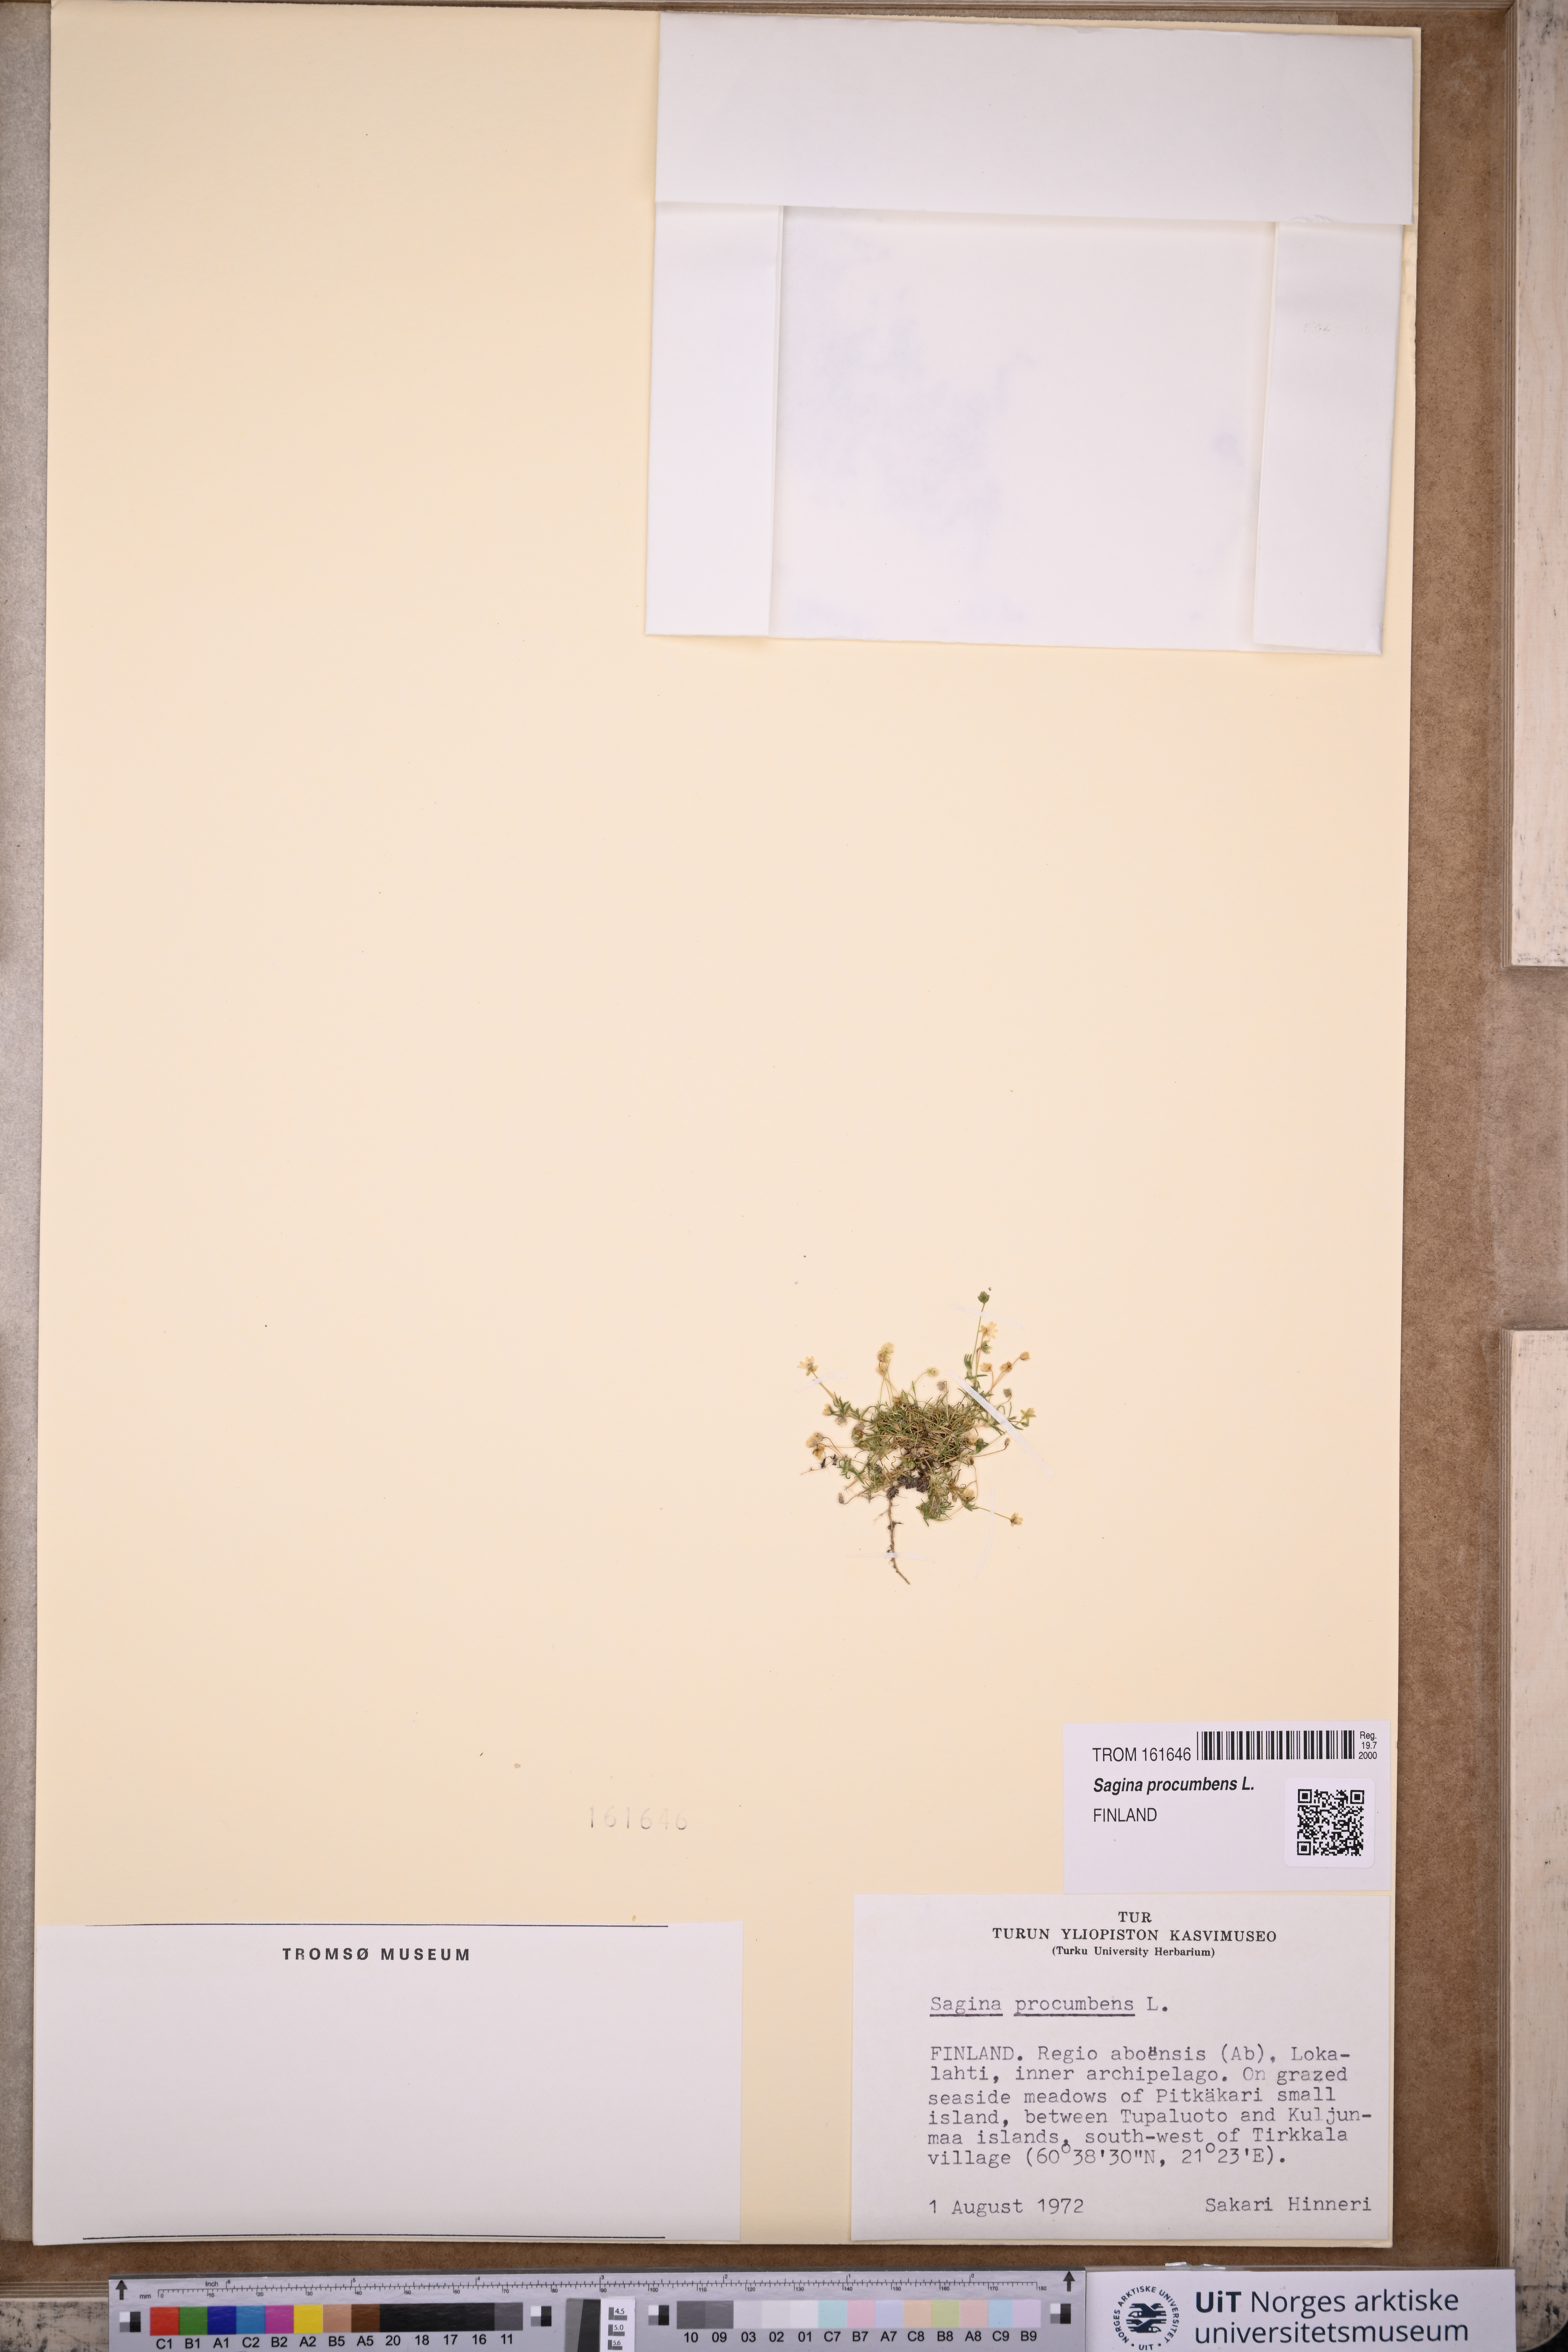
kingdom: Plantae
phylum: Tracheophyta
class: Magnoliopsida
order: Caryophyllales
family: Caryophyllaceae
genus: Sagina
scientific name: Sagina procumbens
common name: Procumbent pearlwort
